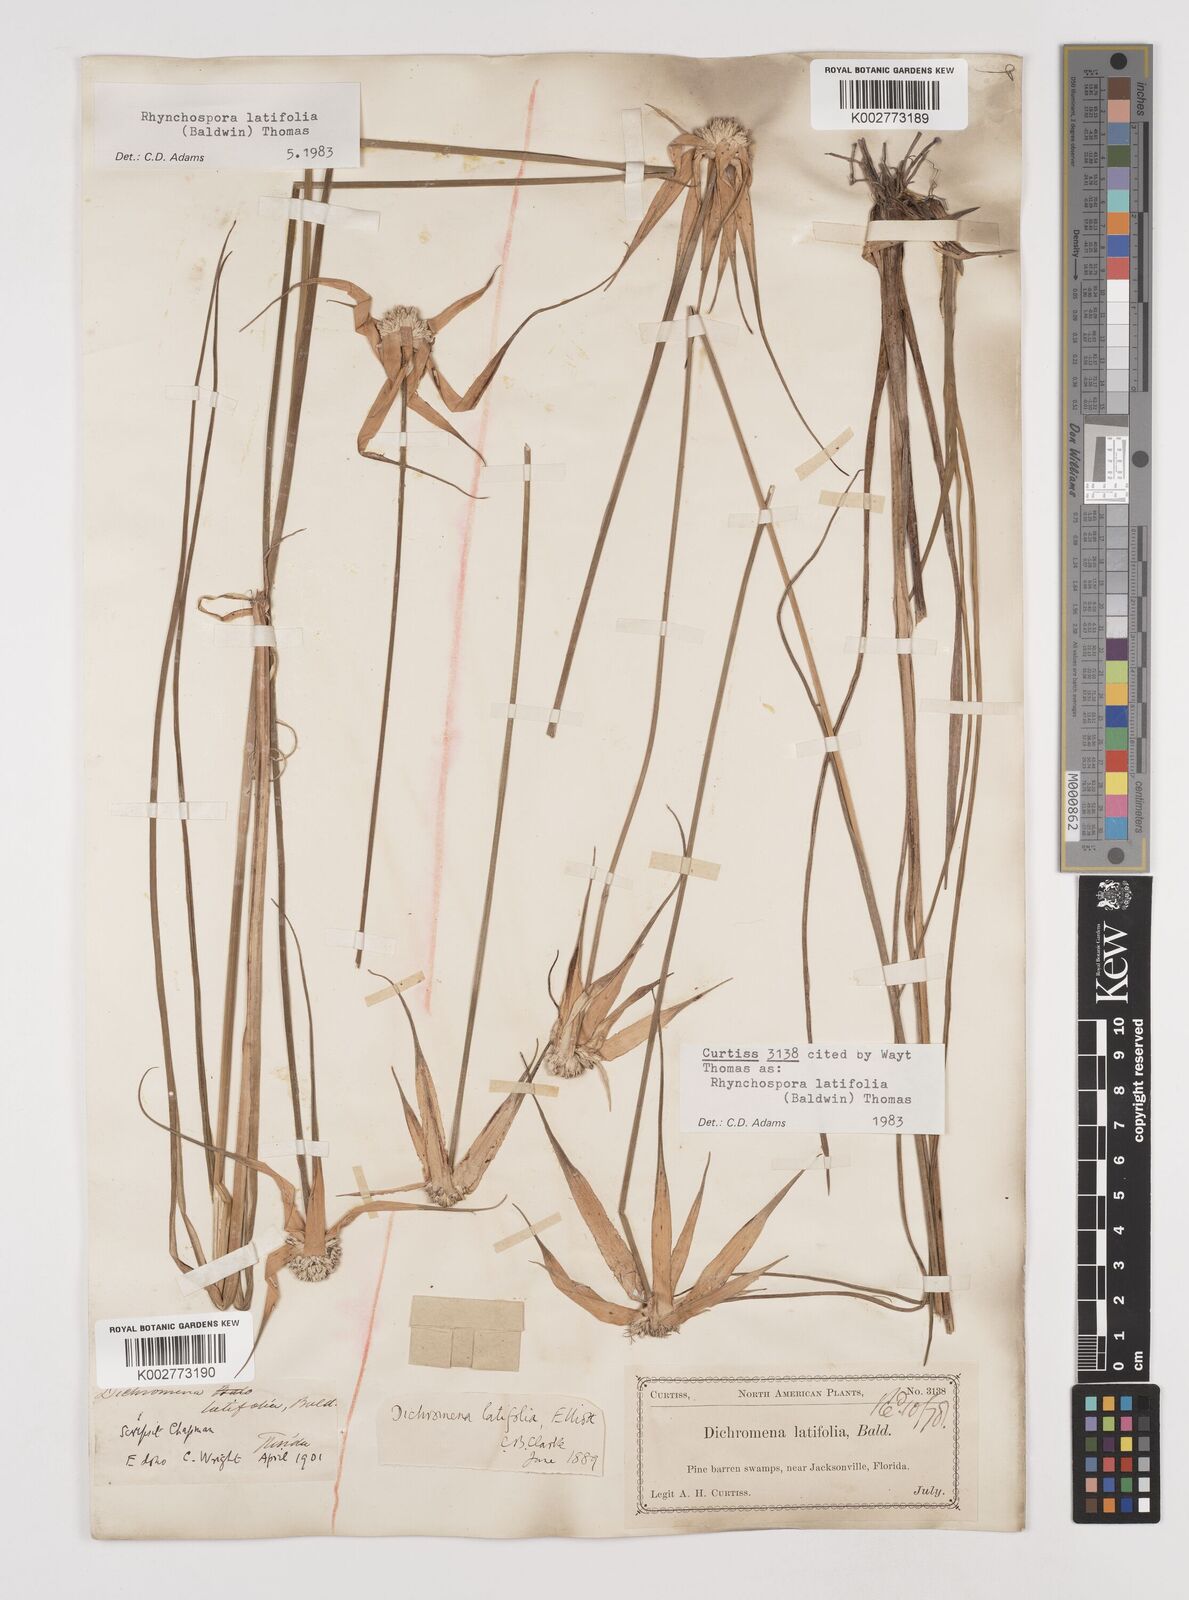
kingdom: Plantae
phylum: Tracheophyta
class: Liliopsida
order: Poales
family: Cyperaceae
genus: Rhynchospora
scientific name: Rhynchospora latifolia
